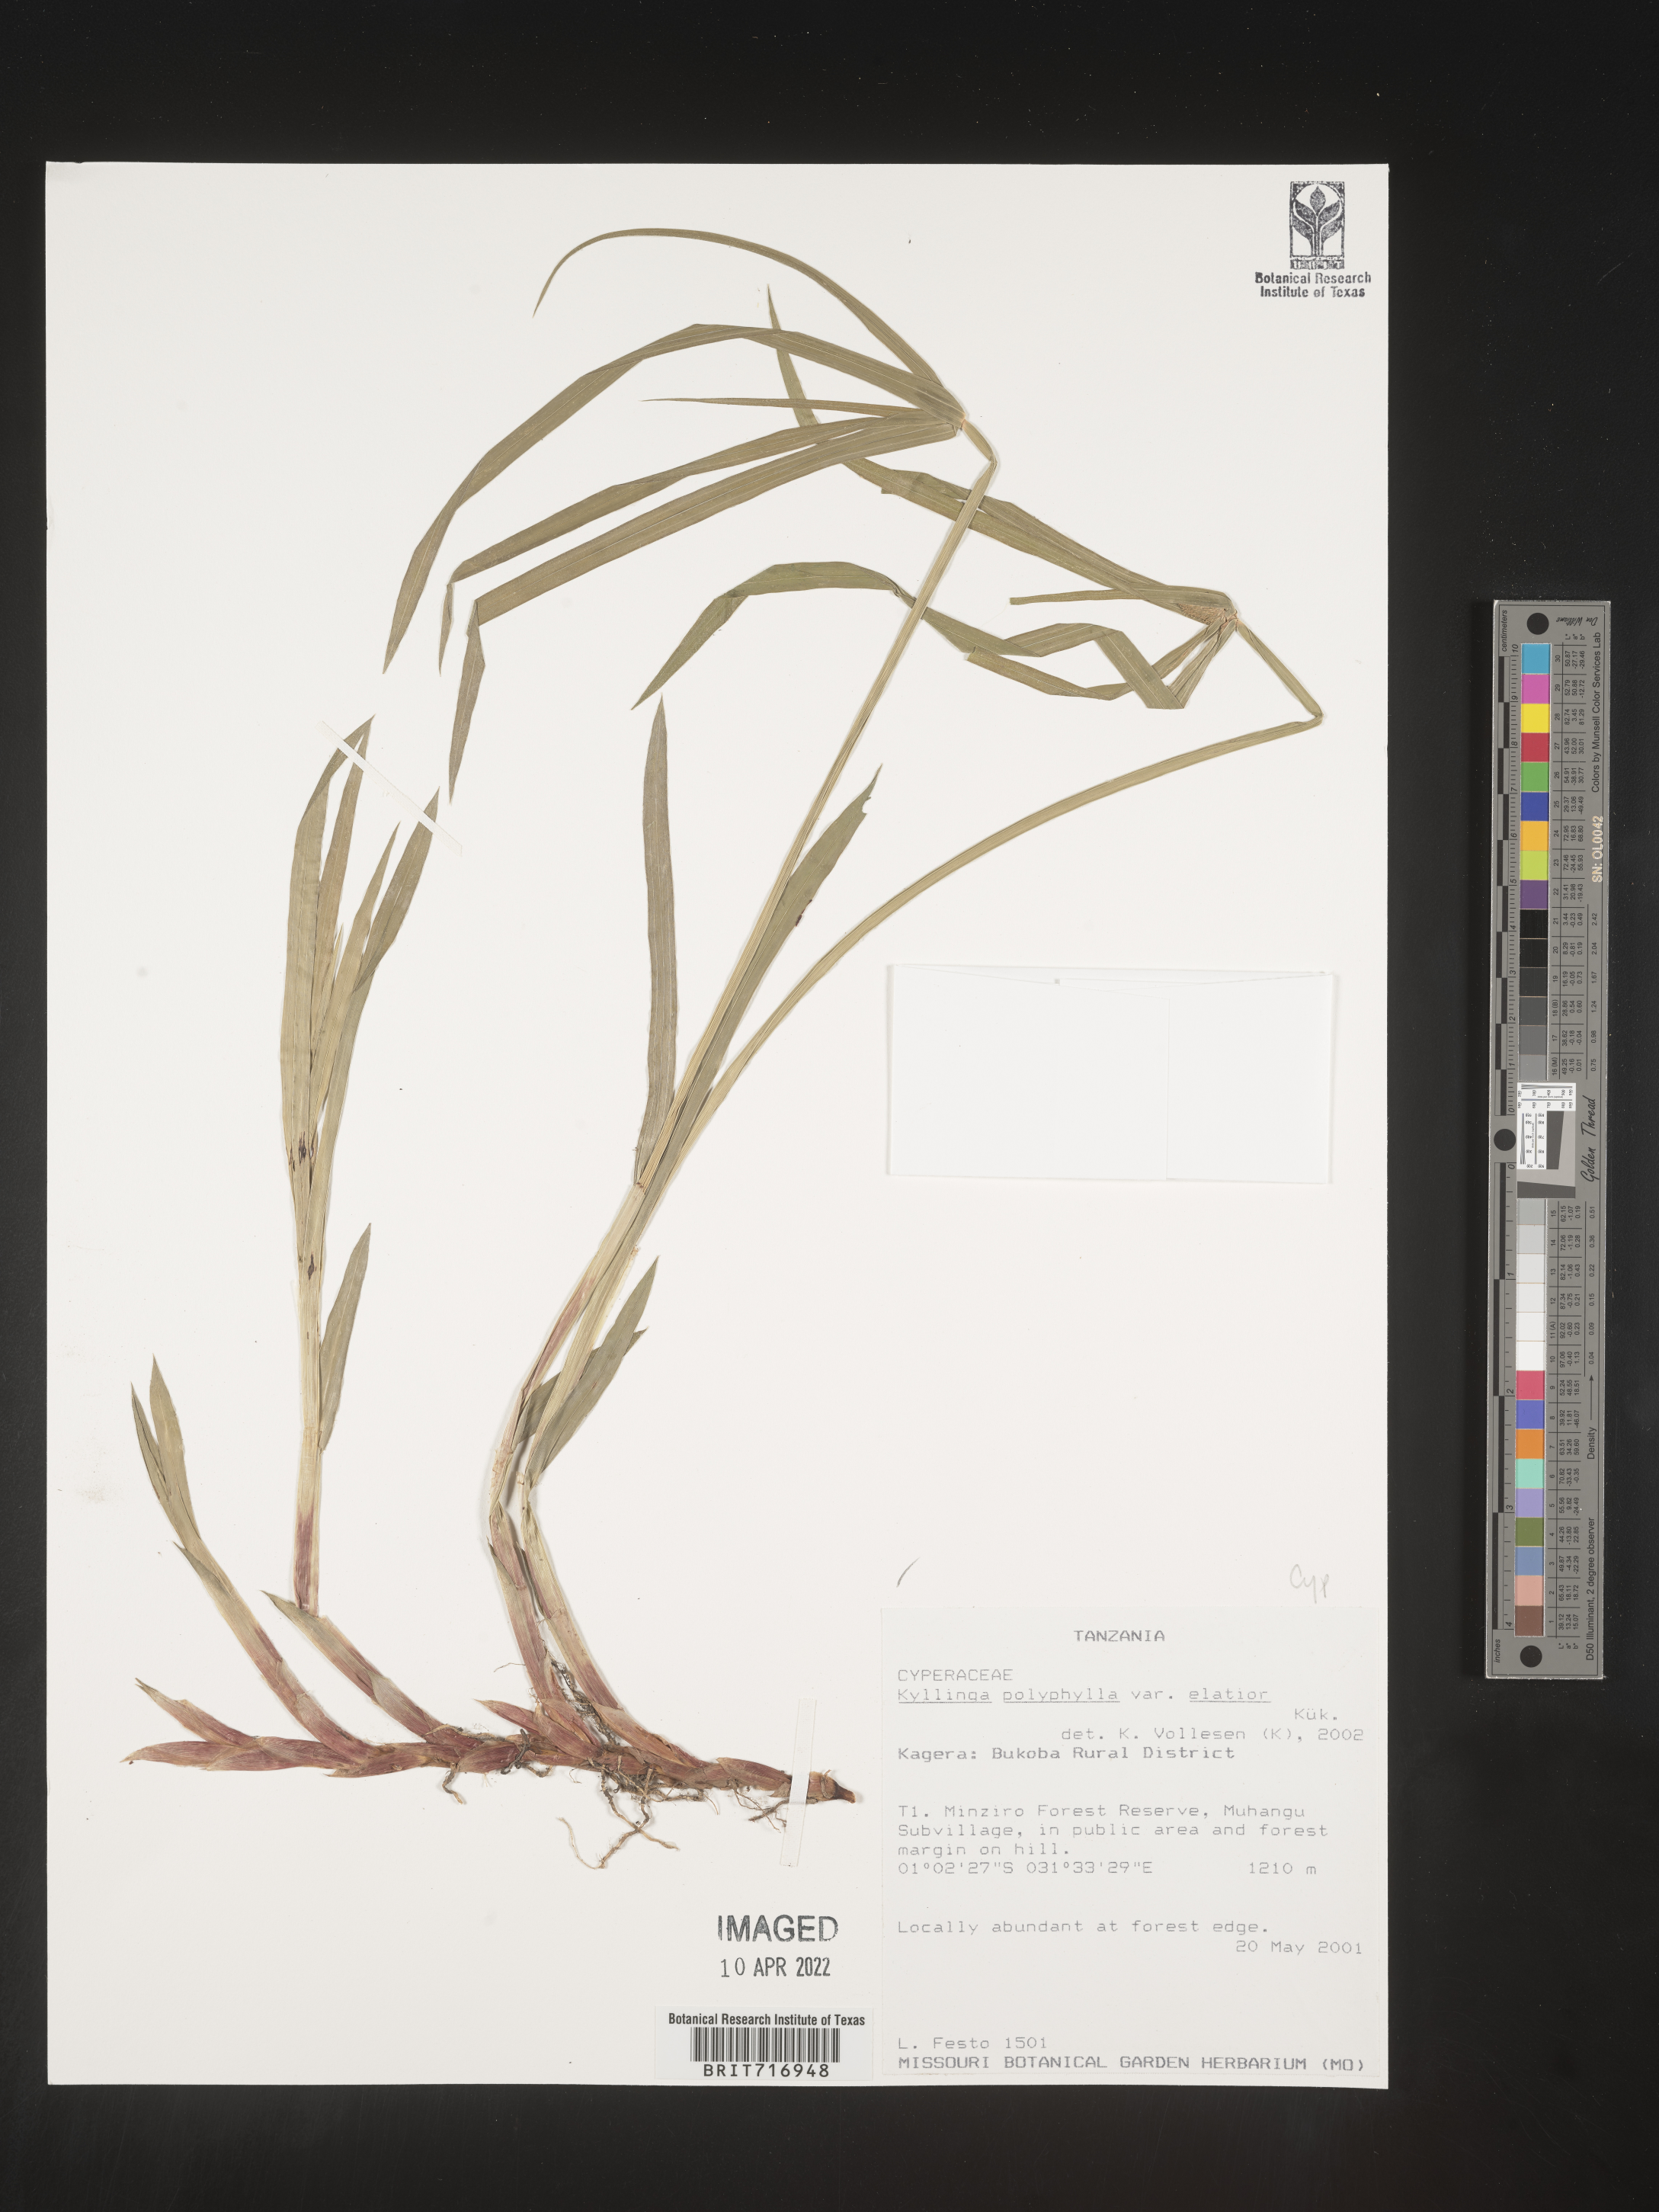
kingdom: Plantae
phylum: Tracheophyta
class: Liliopsida
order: Poales
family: Cyperaceae
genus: Cyperus
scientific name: Cyperus
